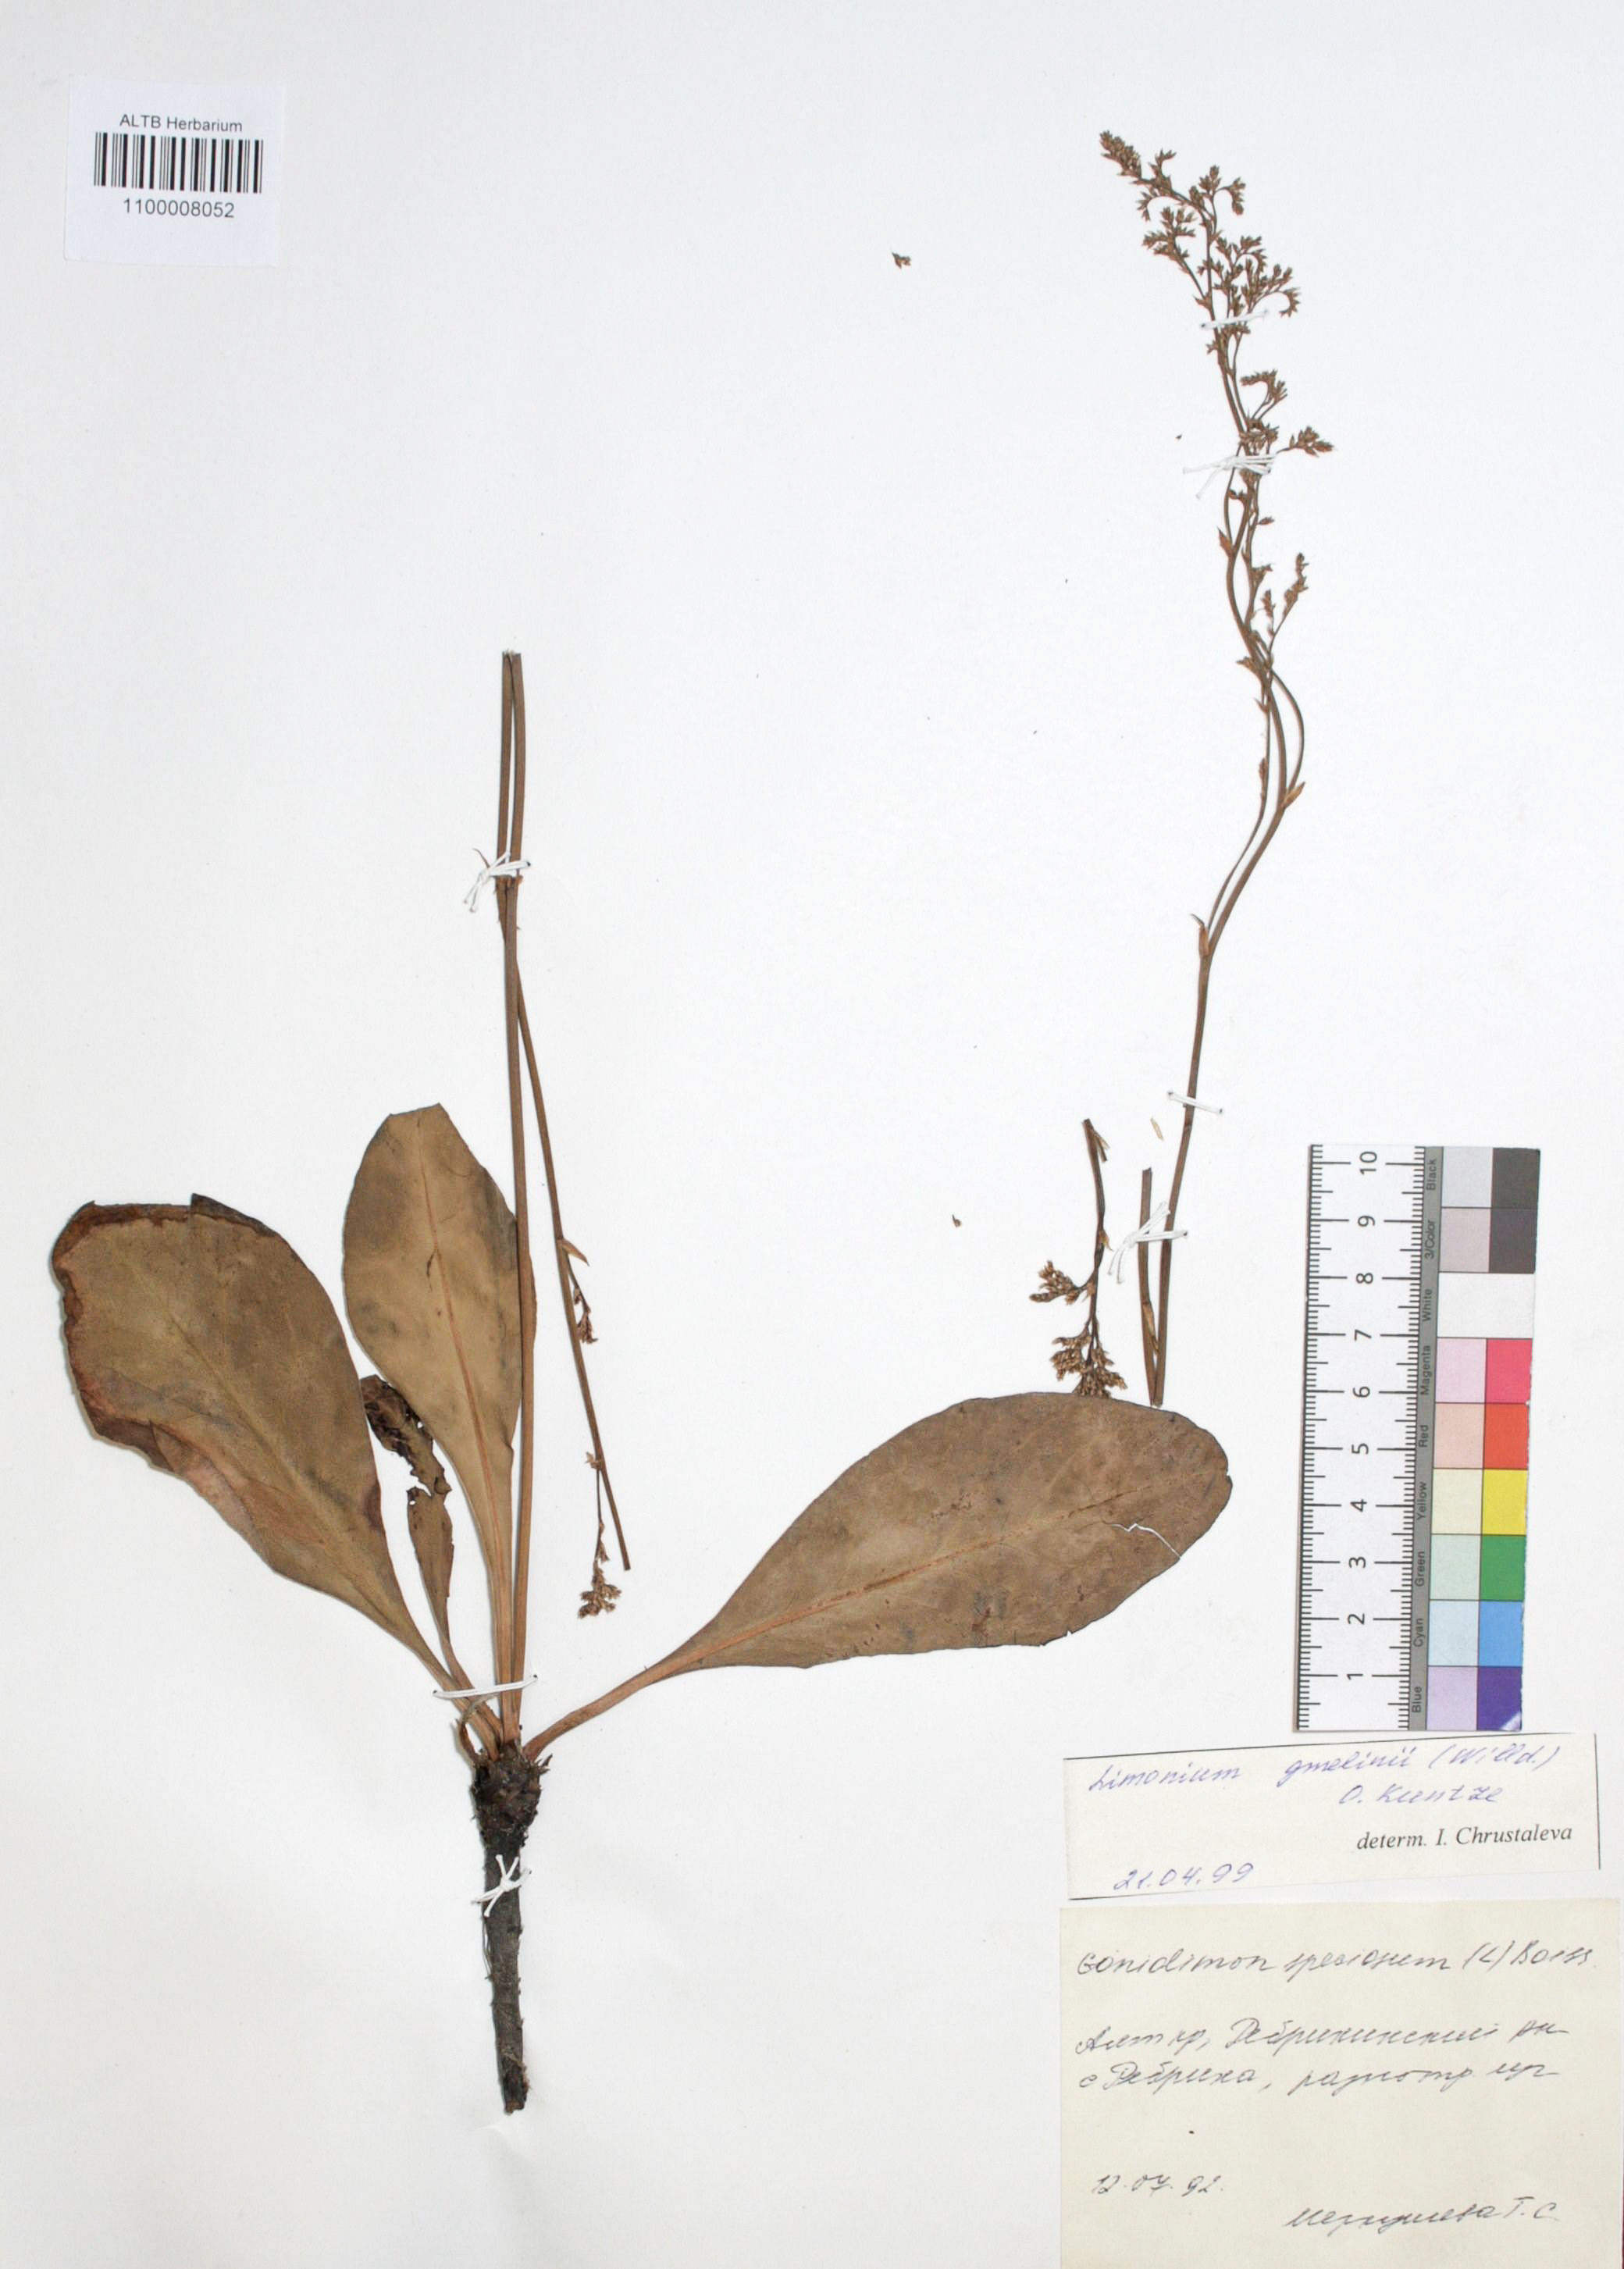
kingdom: Plantae
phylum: Tracheophyta
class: Magnoliopsida
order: Caryophyllales
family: Plumbaginaceae
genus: Limonium
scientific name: Limonium gmelini
